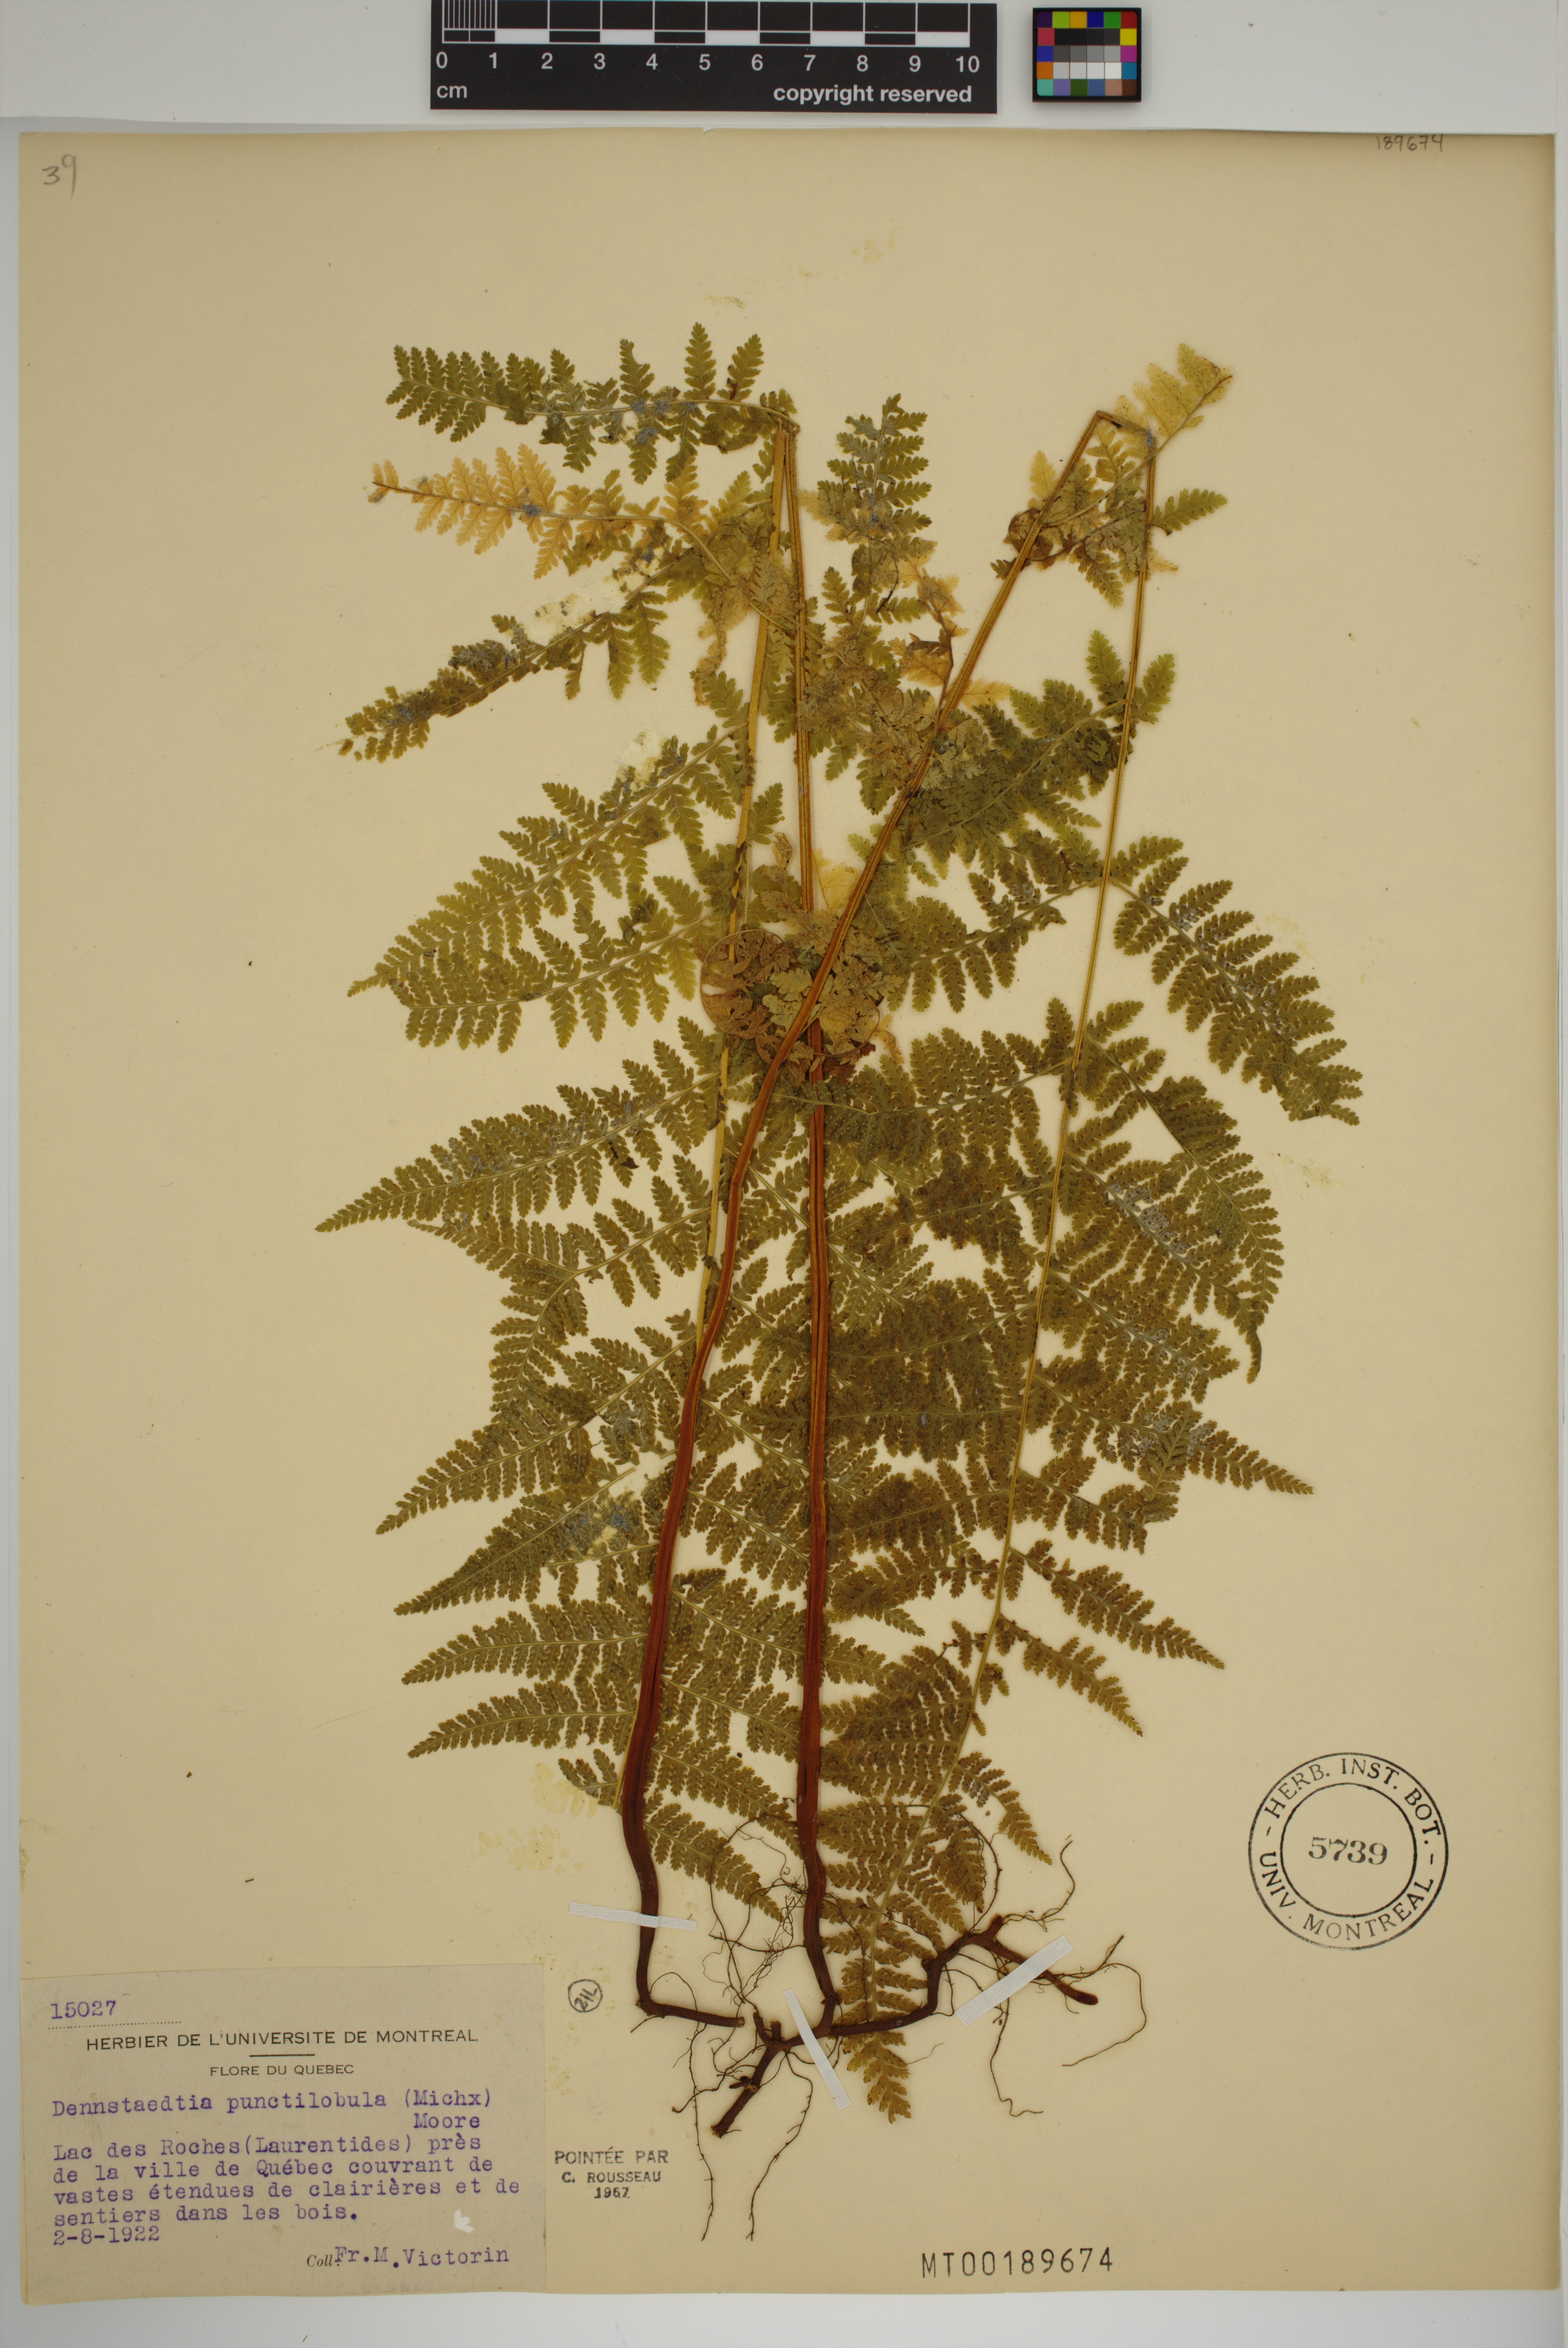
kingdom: Plantae
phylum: Tracheophyta
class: Polypodiopsida
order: Polypodiales
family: Dennstaedtiaceae
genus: Sitobolium
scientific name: Sitobolium punctilobum
